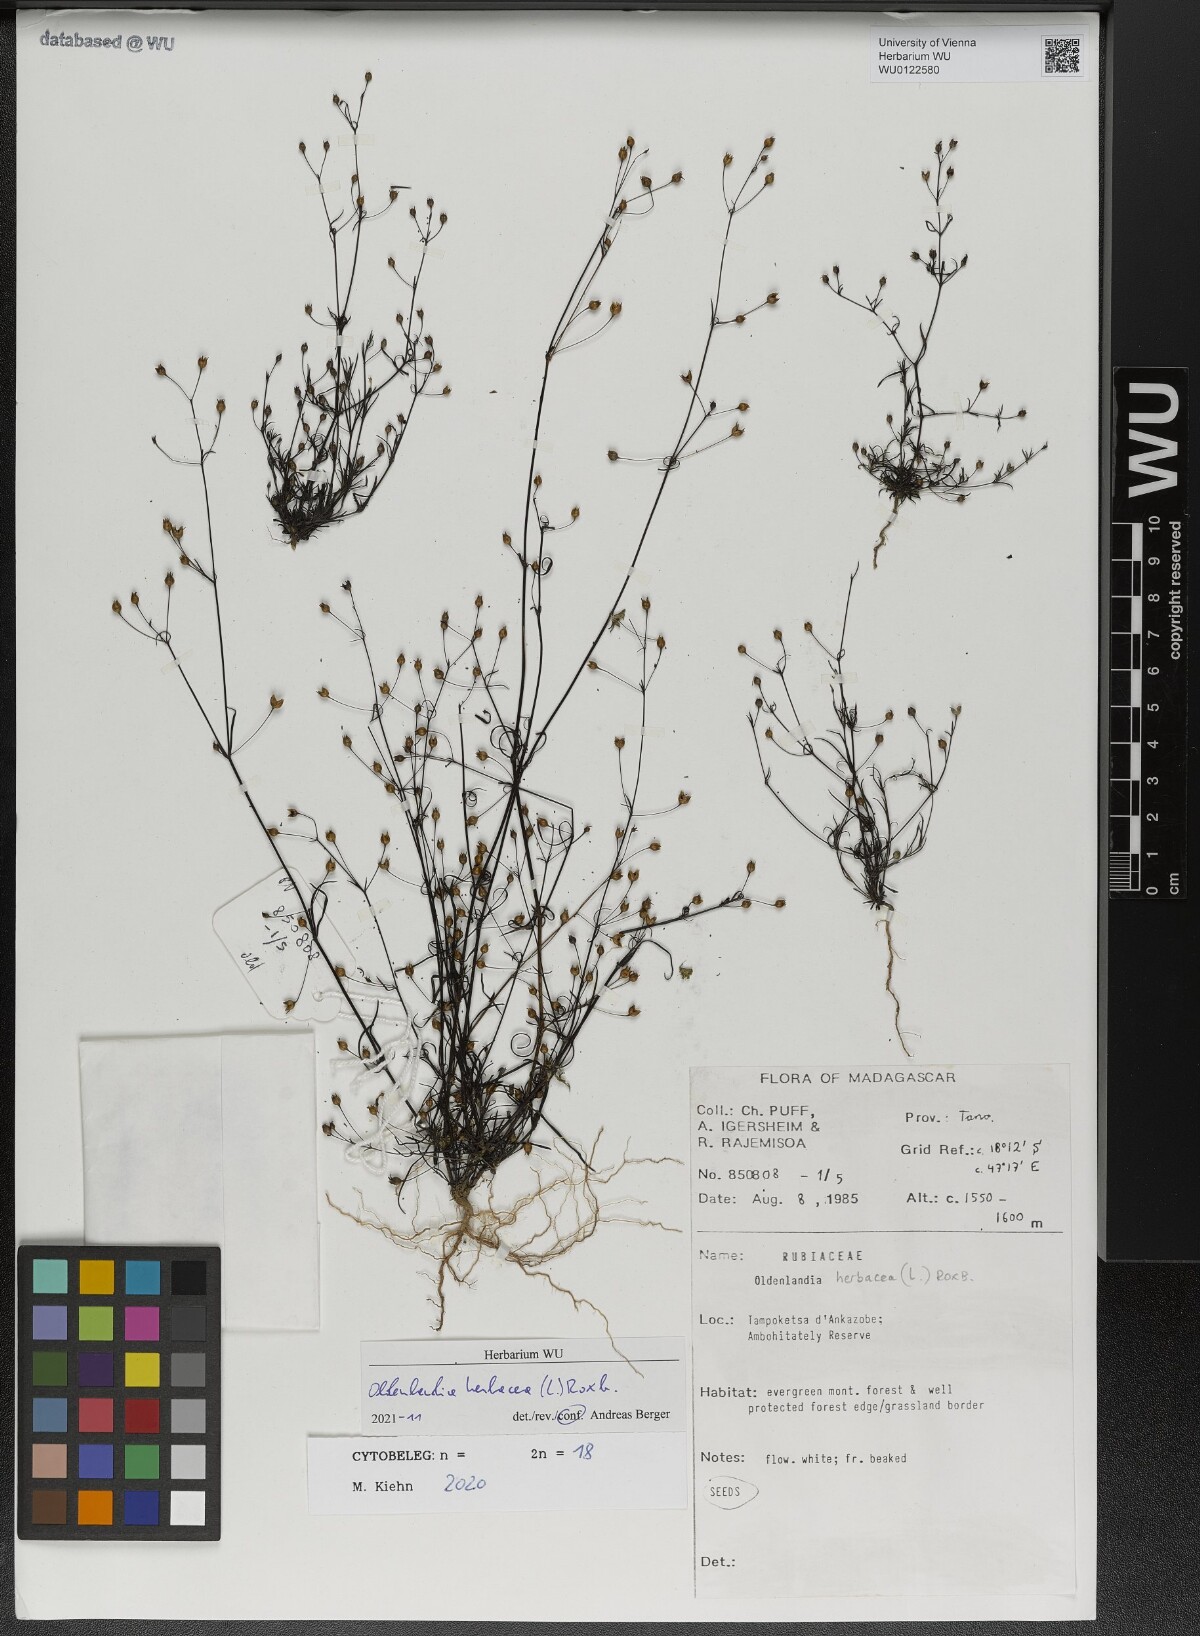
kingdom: Plantae
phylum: Tracheophyta
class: Magnoliopsida
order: Gentianales
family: Rubiaceae
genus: Oldenlandia
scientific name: Oldenlandia herbacea
